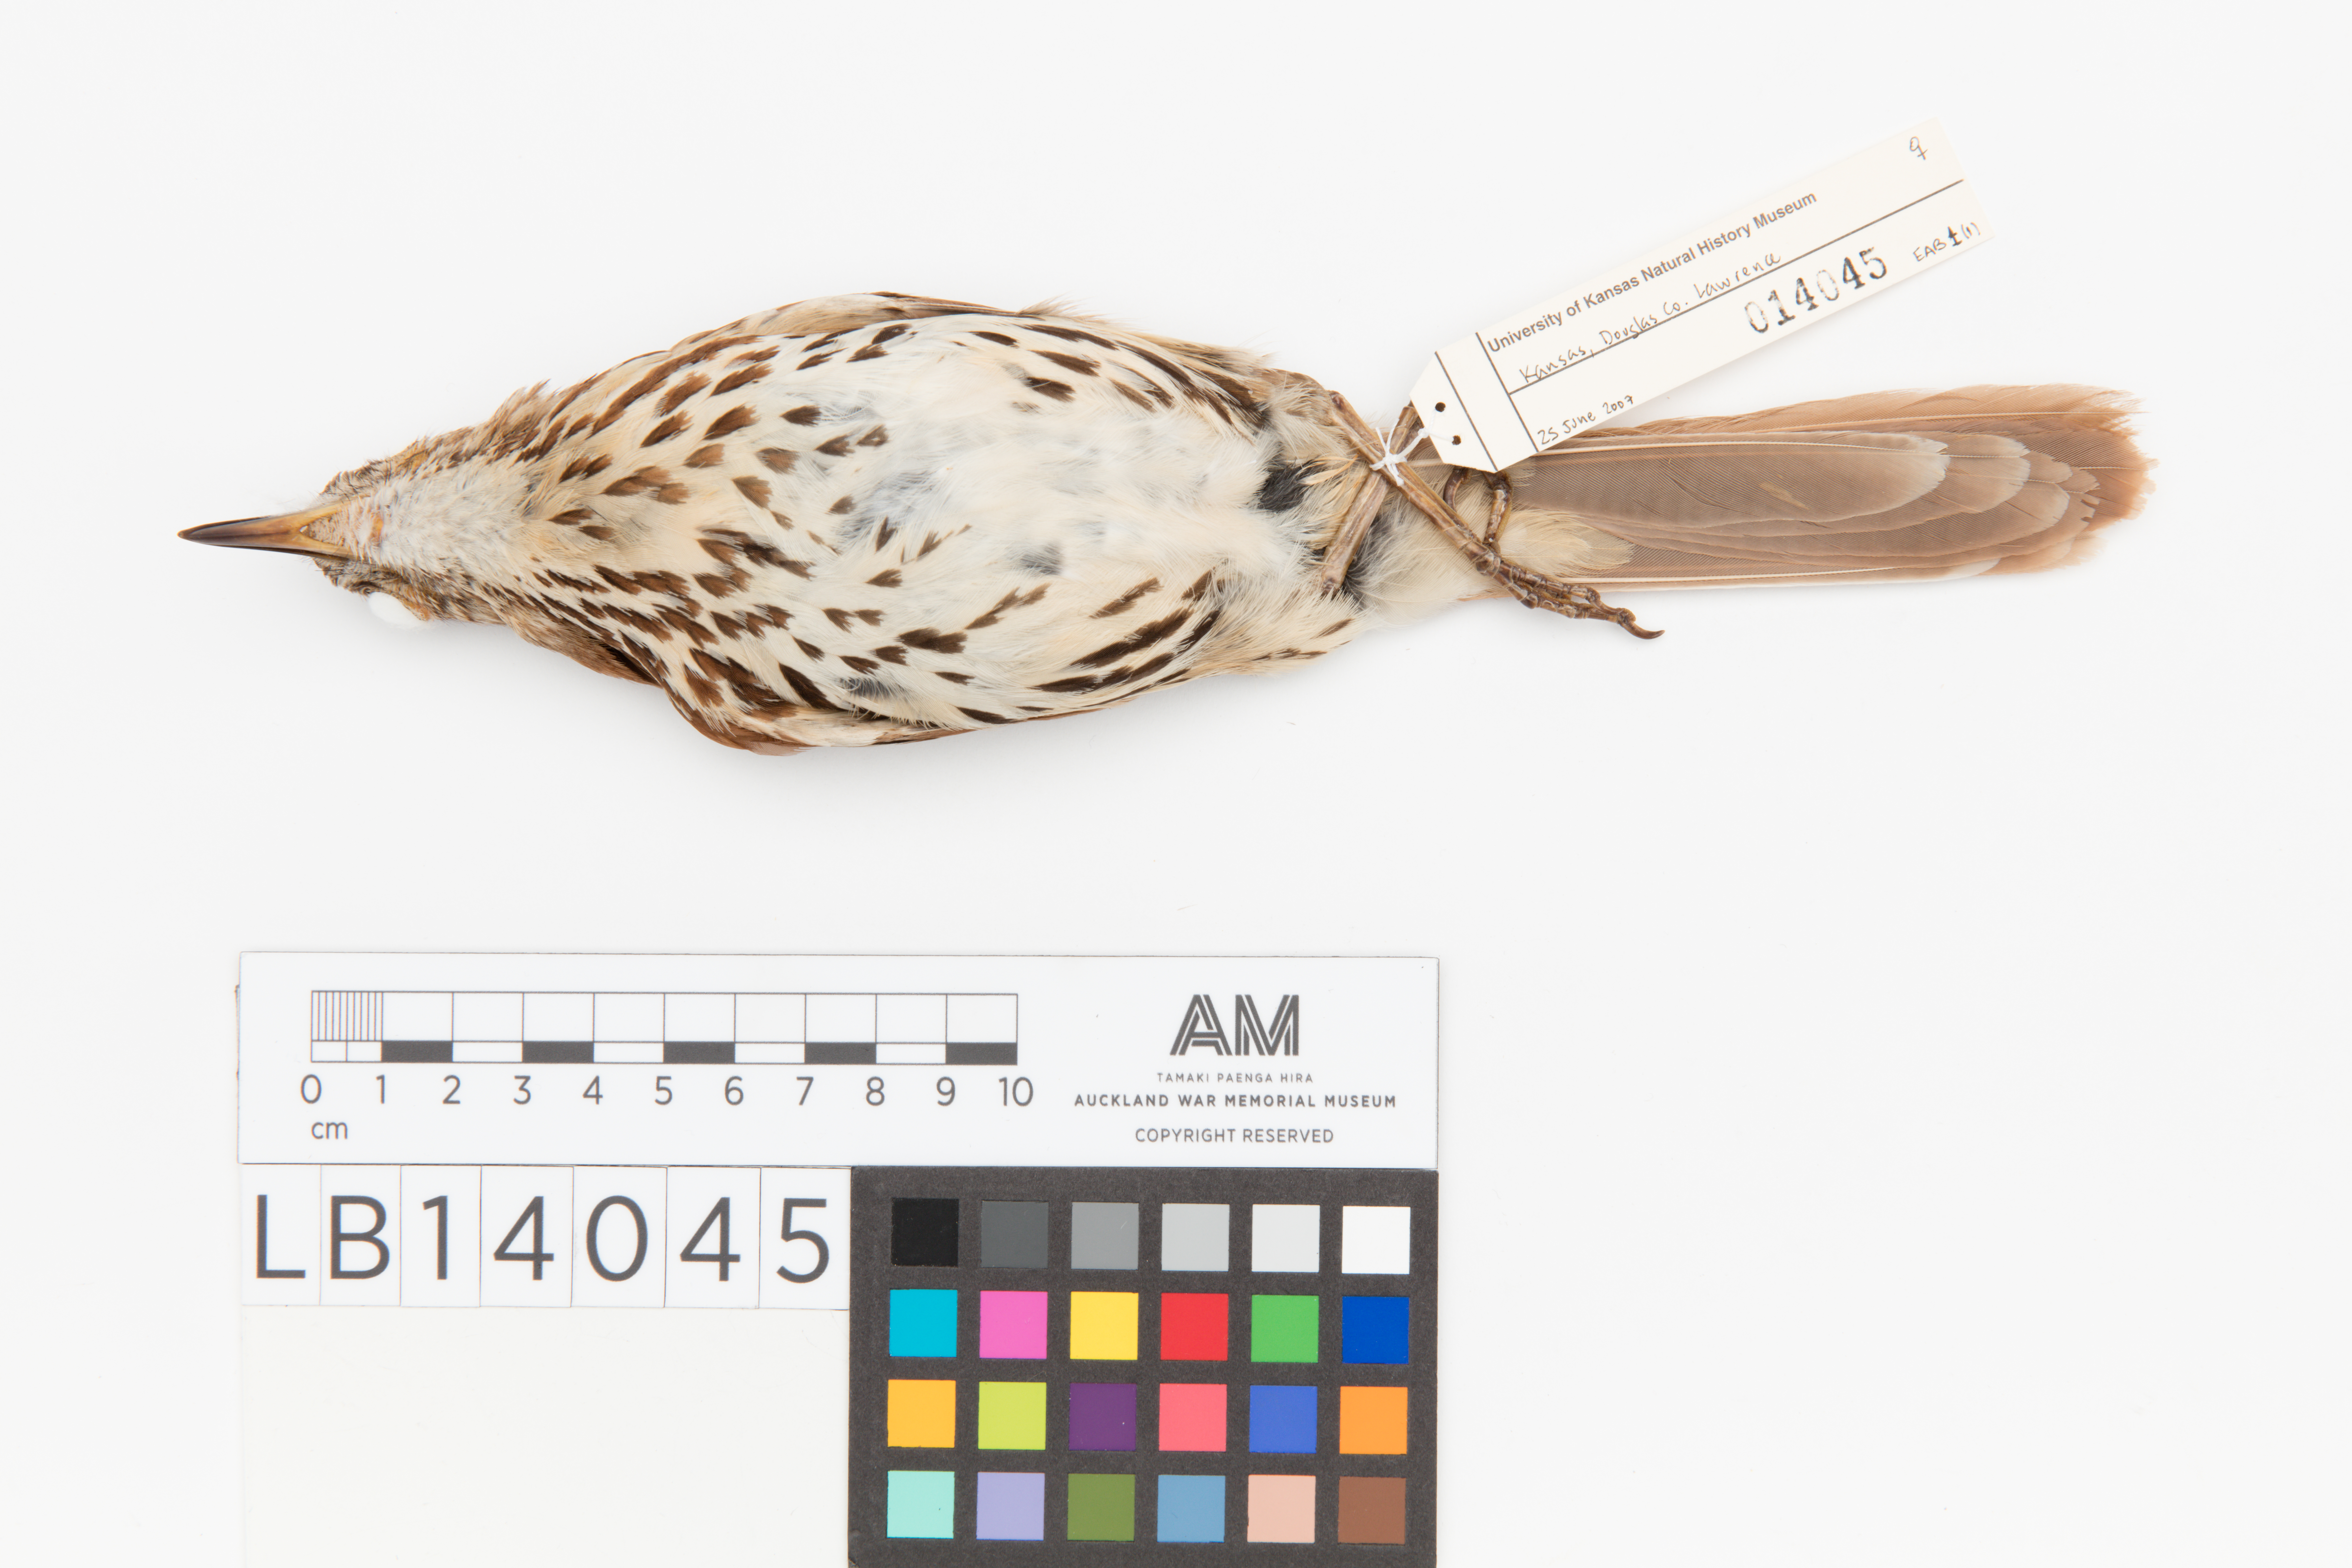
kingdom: Animalia
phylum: Chordata
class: Aves
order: Passeriformes
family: Mimidae
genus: Toxostoma
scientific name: Toxostoma rufum
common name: Brown thrasher
